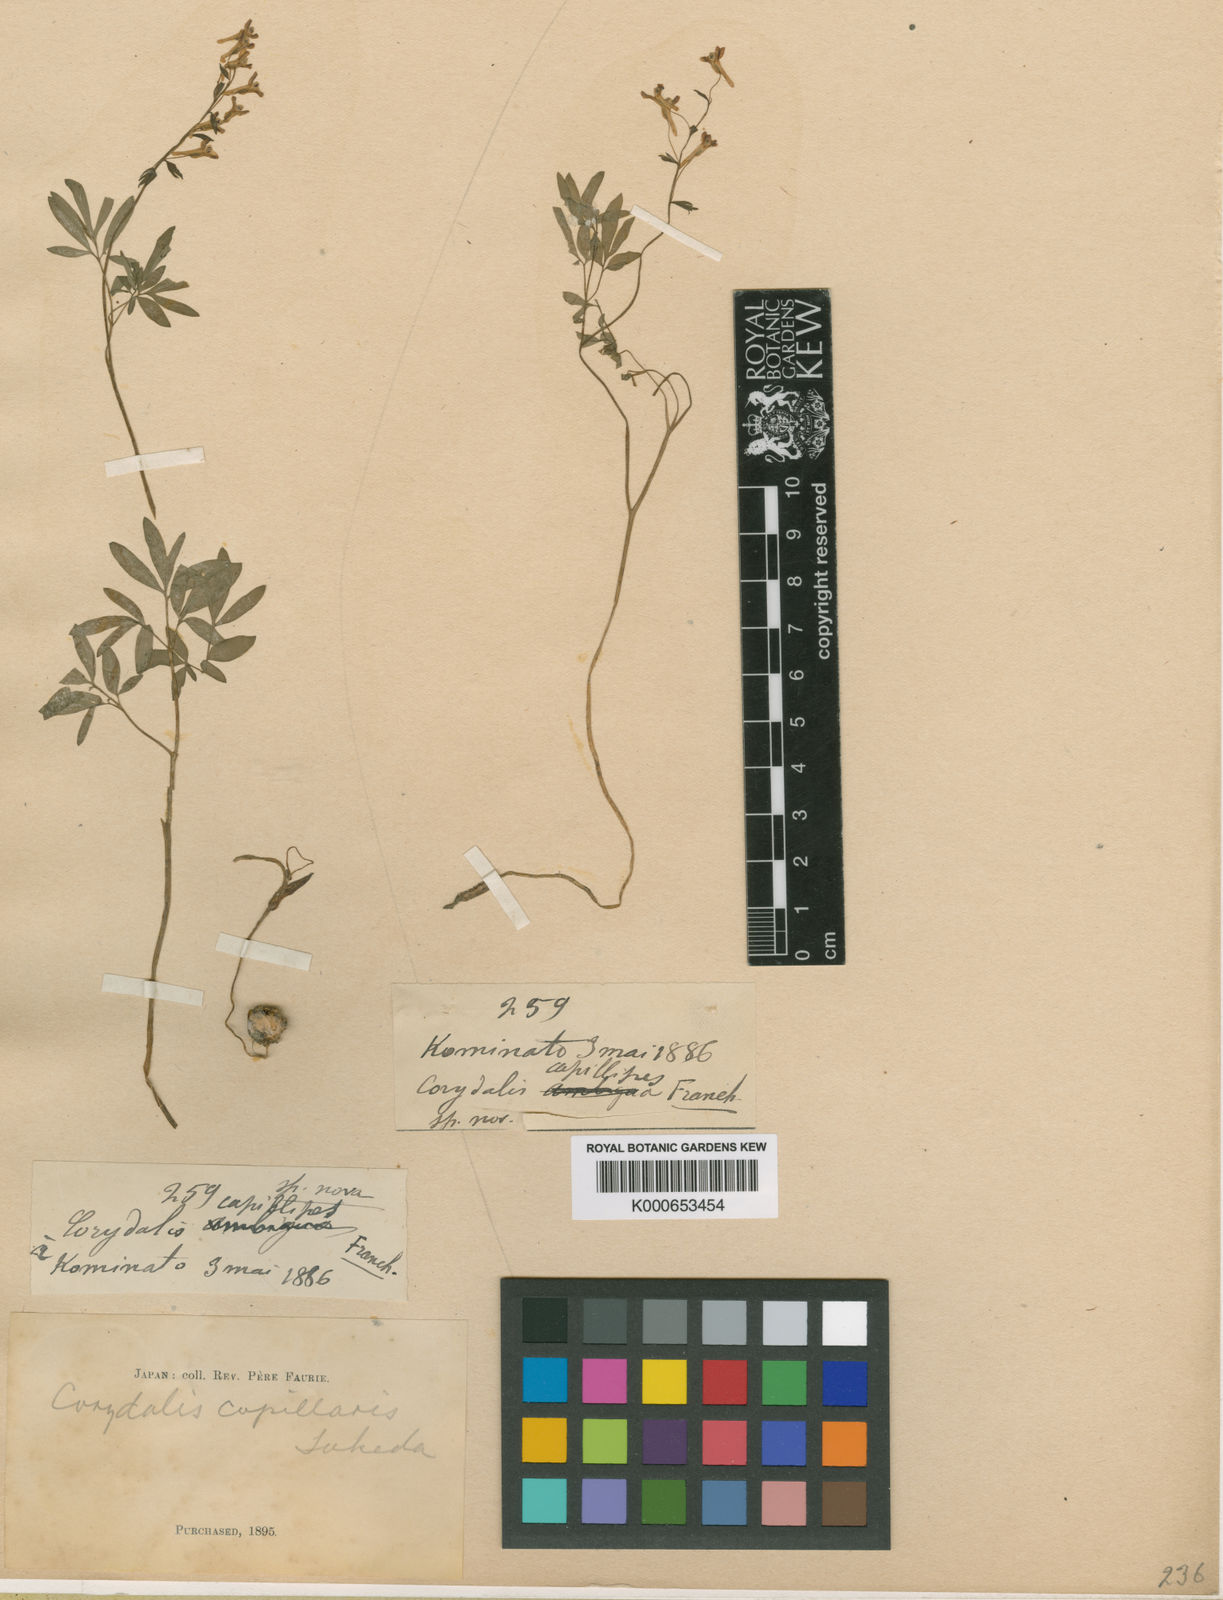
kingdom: Plantae
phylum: Tracheophyta
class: Magnoliopsida
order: Ranunculales
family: Papaveraceae
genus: Corydalis
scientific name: Corydalis orthoceras
